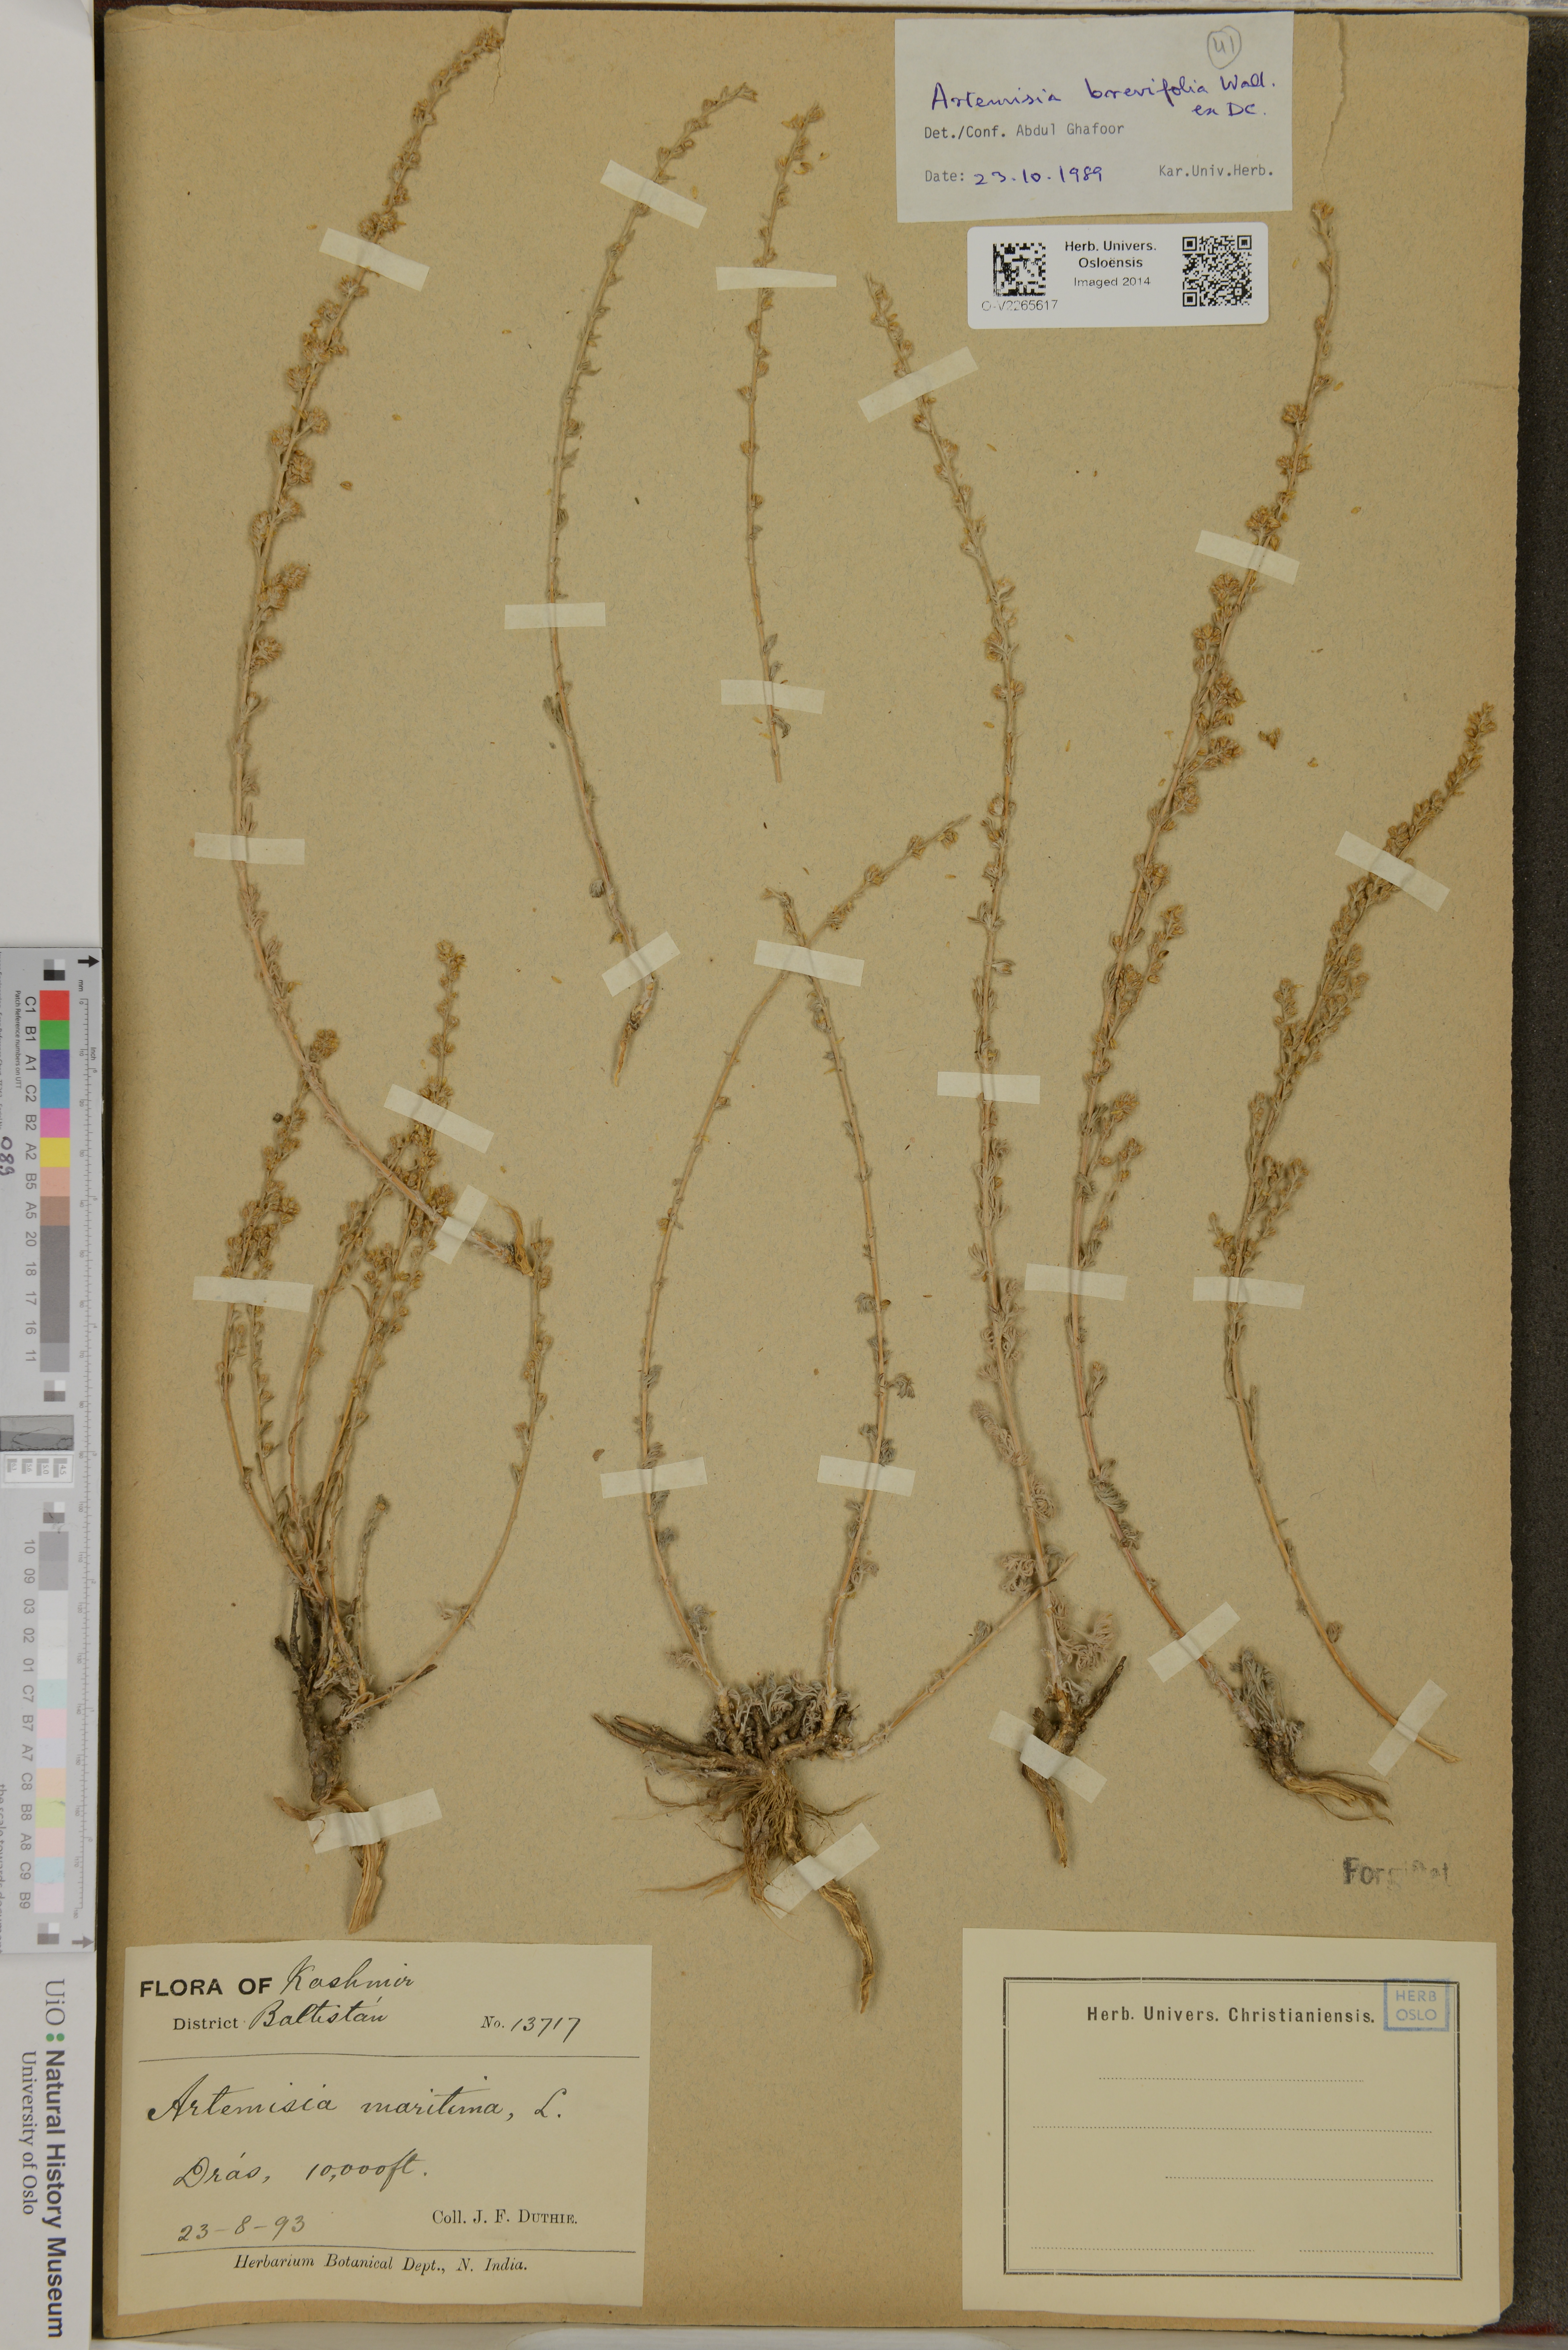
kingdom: Plantae
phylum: Tracheophyta
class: Magnoliopsida
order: Asterales
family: Asteraceae
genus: Artemisia
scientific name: Artemisia brevifolia
